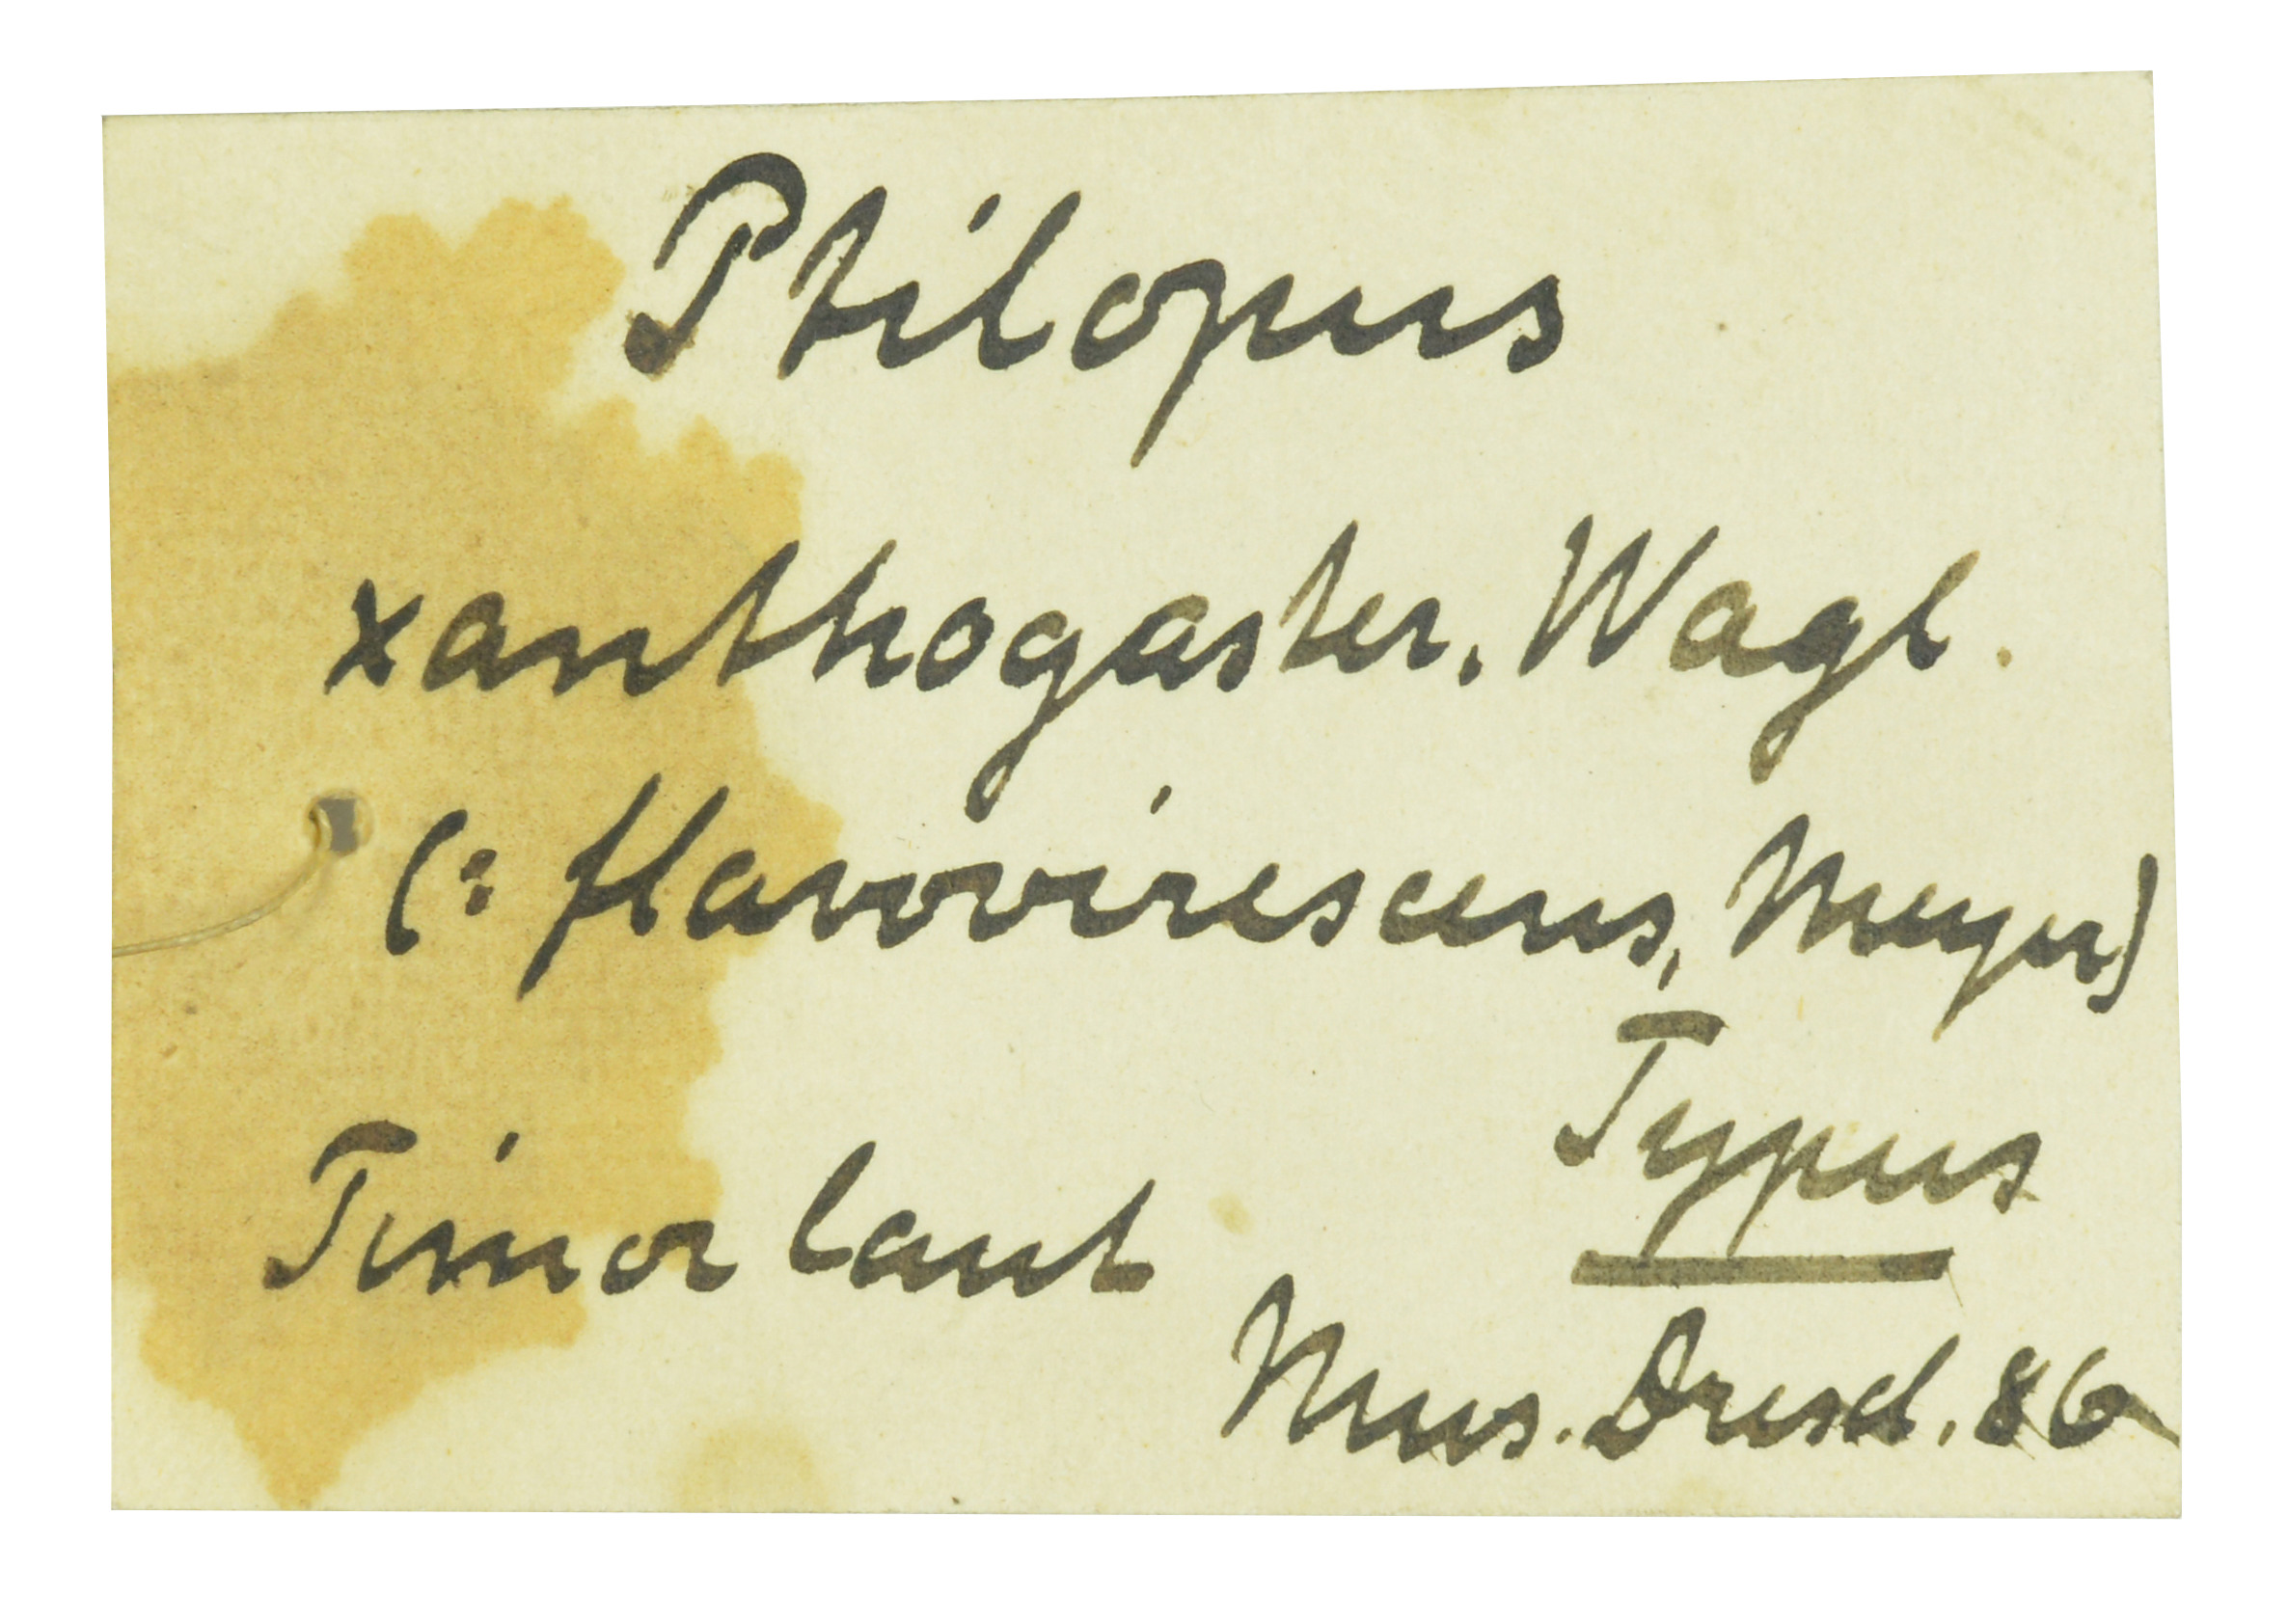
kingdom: Animalia
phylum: Chordata
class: Aves
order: Columbiformes
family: Columbidae
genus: Ptilinopus
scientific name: Ptilinopus regina
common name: Rose-crowned fruit dove
